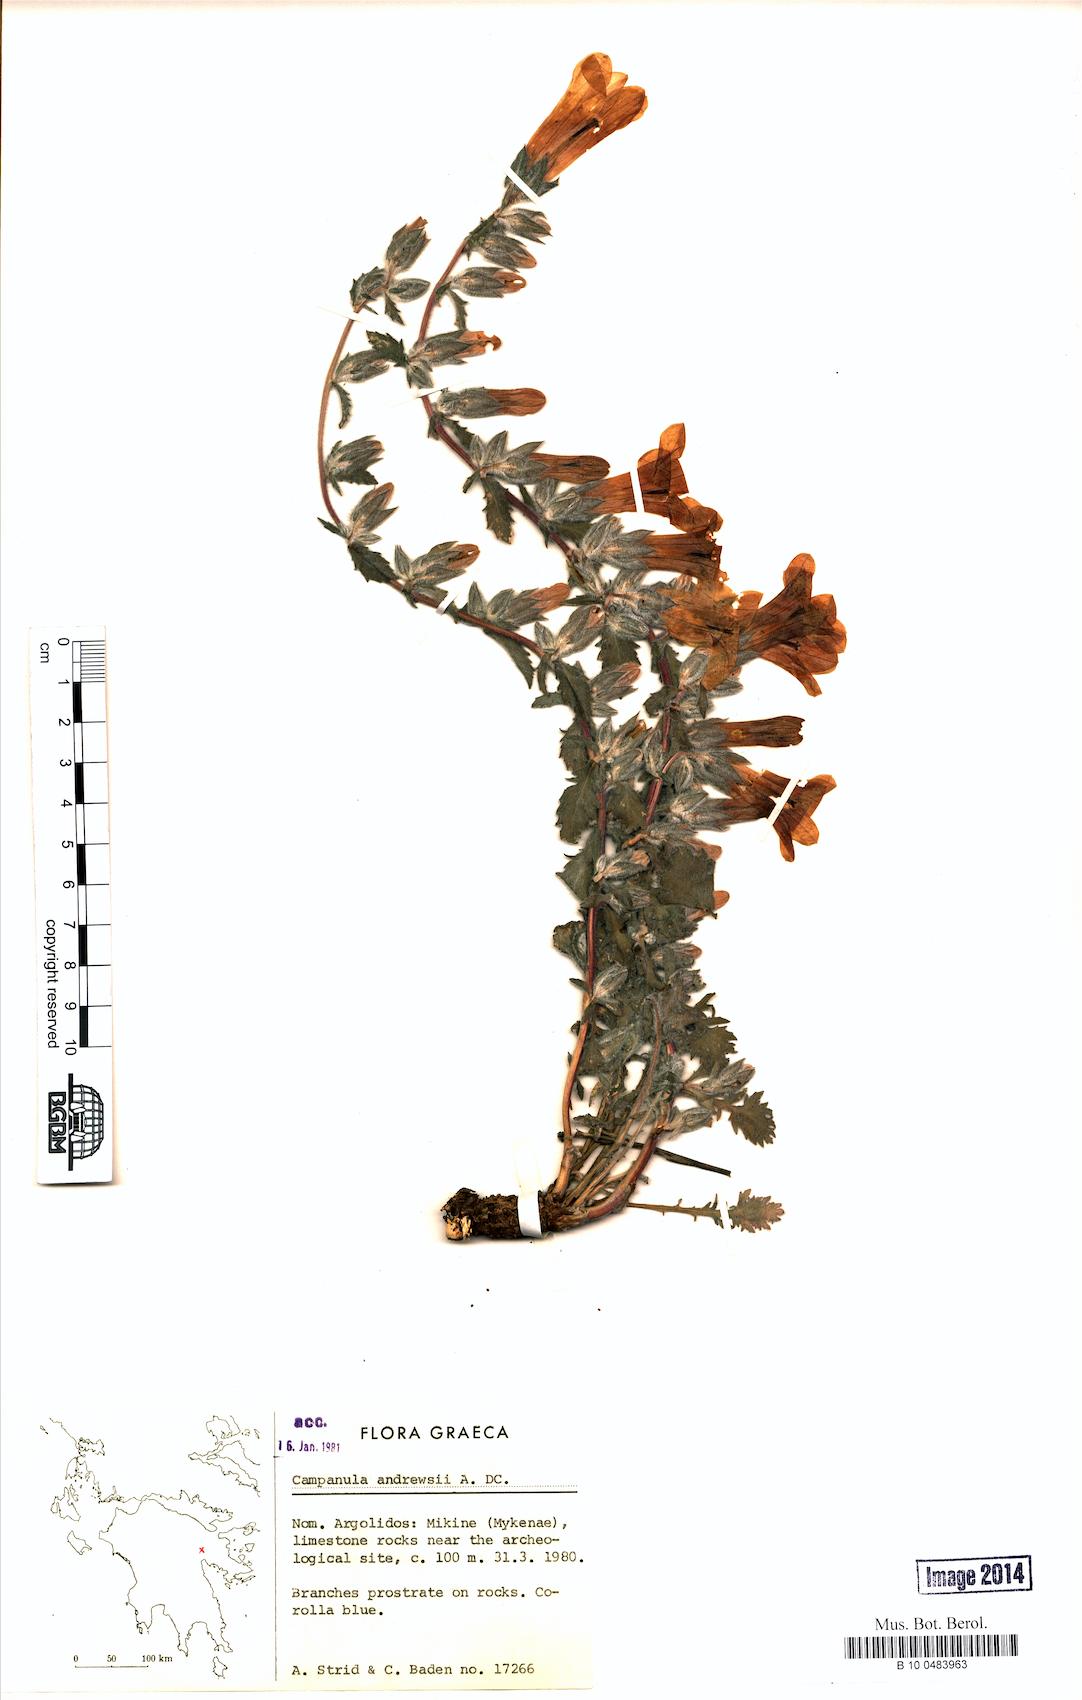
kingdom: Plantae
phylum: Tracheophyta
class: Magnoliopsida
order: Asterales
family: Campanulaceae
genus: Campanula
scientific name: Campanula andrewsii
